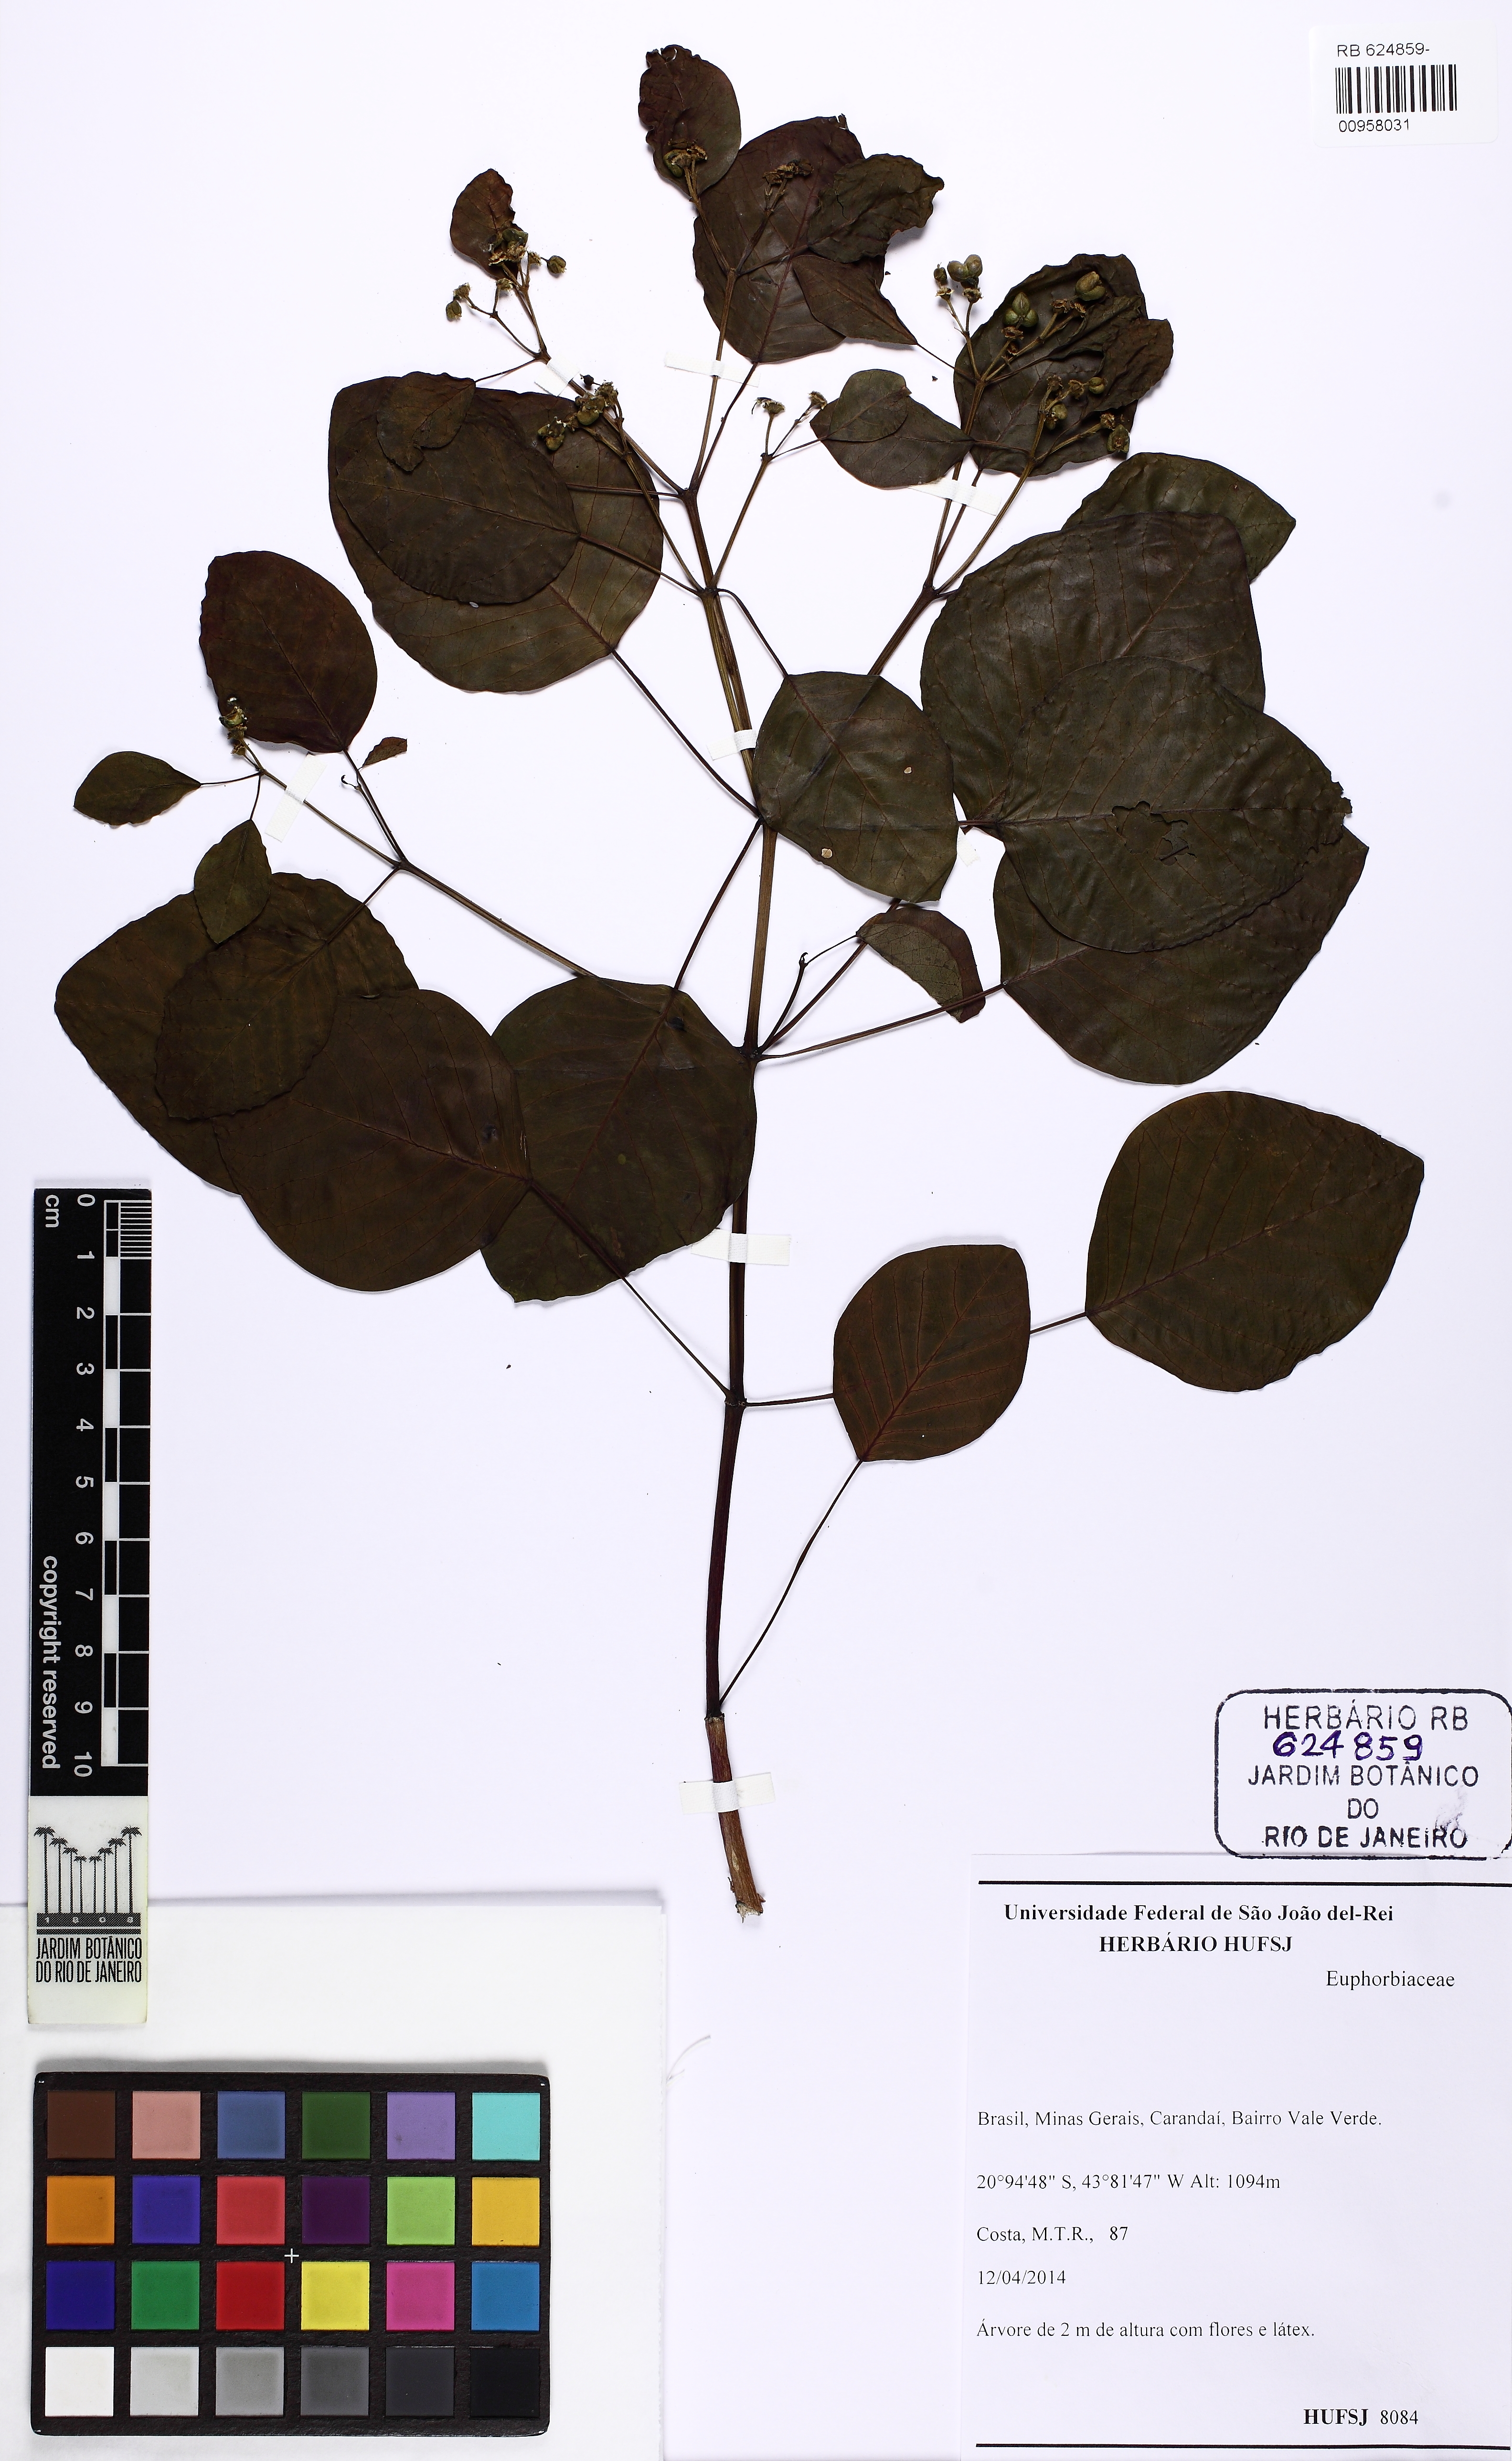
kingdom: Plantae
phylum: Tracheophyta
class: Magnoliopsida
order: Malpighiales
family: Euphorbiaceae
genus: Euphorbia
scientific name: Euphorbia cotinifolia
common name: Tropical smokebush
